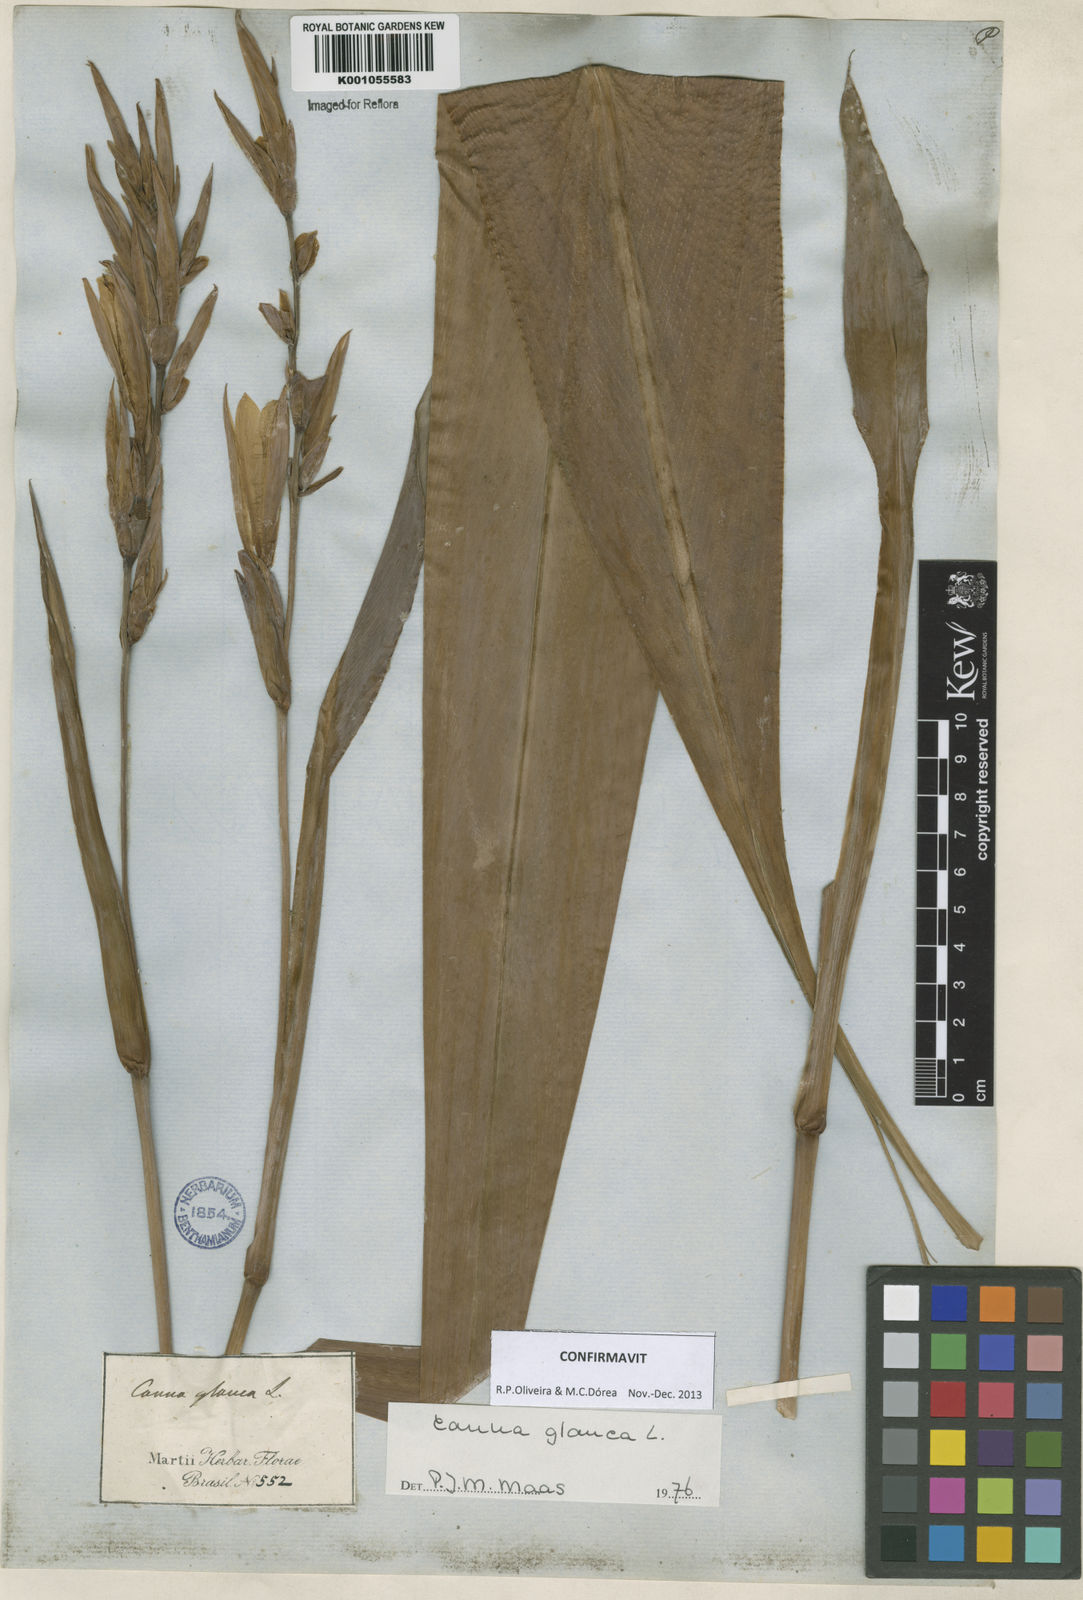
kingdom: Plantae
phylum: Tracheophyta
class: Liliopsida
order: Zingiberales
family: Cannaceae
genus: Canna
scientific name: Canna glauca
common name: Louisiana canna
